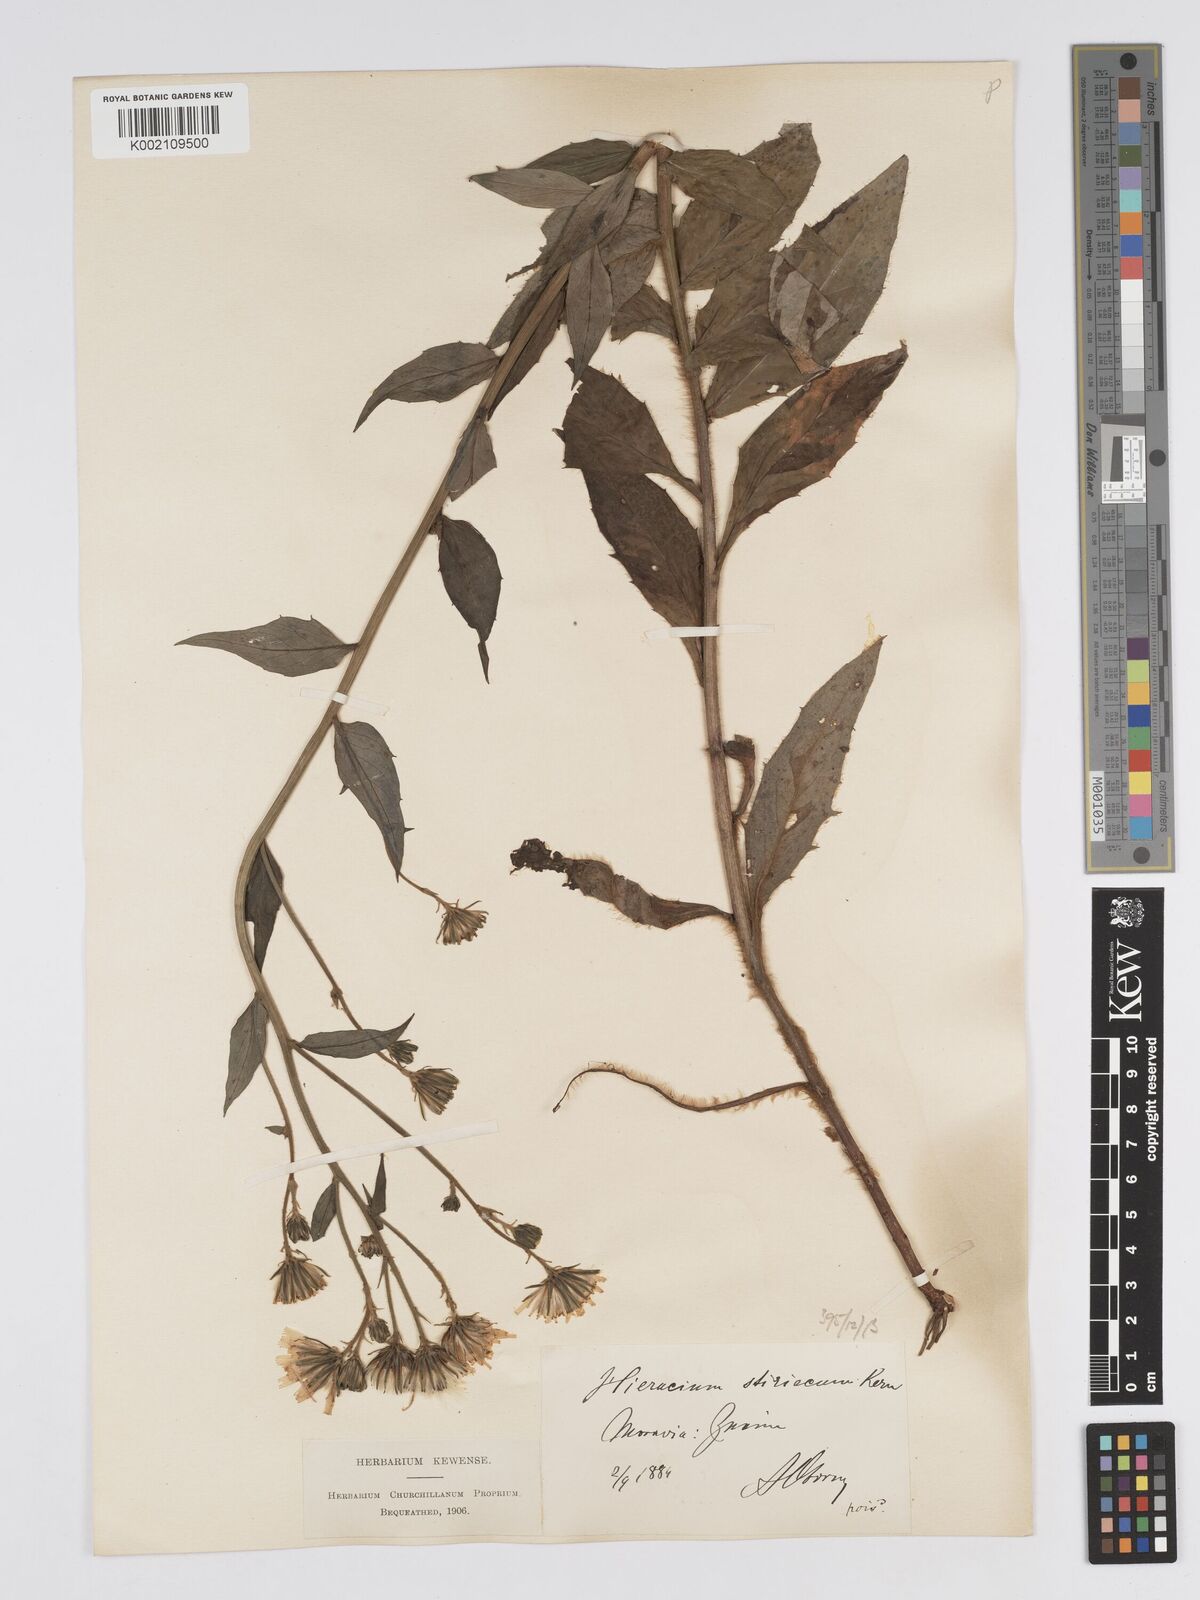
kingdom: Plantae
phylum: Tracheophyta
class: Magnoliopsida
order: Asterales
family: Asteraceae
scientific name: Asteraceae
